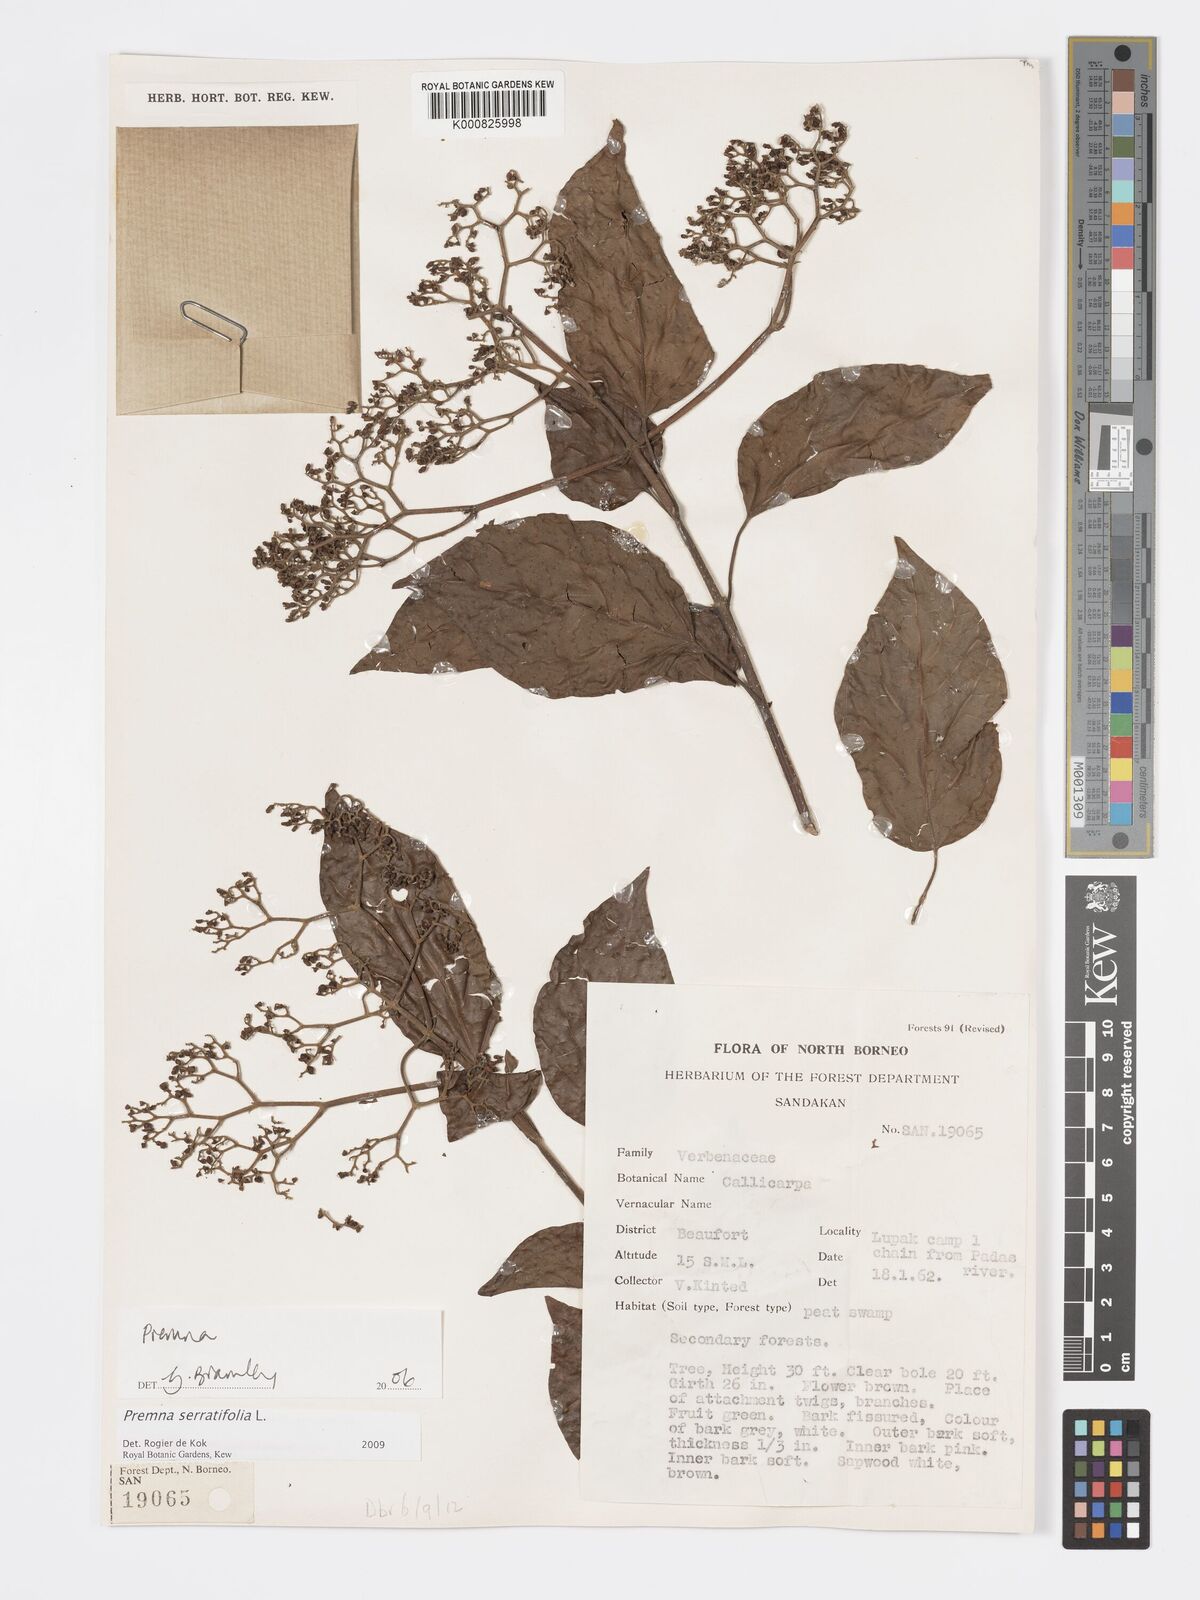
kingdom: Plantae
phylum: Tracheophyta
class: Magnoliopsida
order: Lamiales
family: Lamiaceae
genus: Premna
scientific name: Premna serratifolia
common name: Bastard guelder
